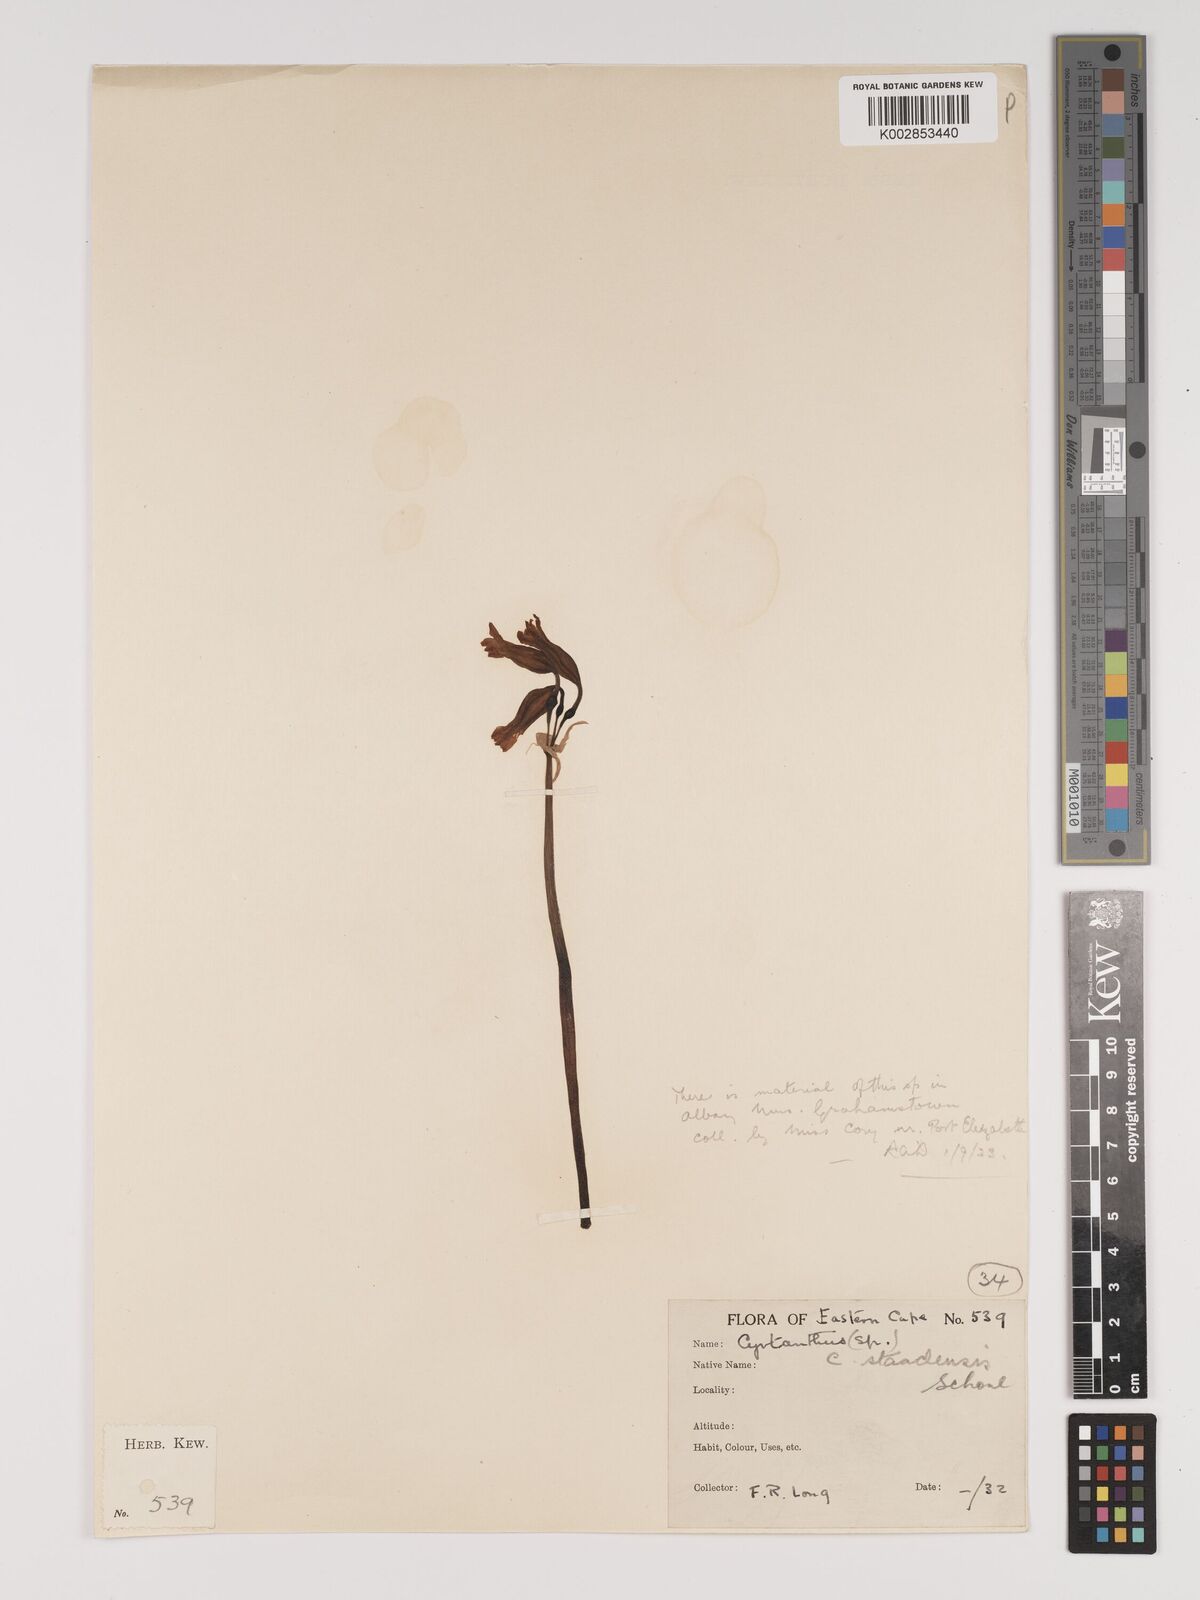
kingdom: Plantae
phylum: Tracheophyta
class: Liliopsida
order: Asparagales
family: Amaryllidaceae
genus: Cyrtanthus
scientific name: Cyrtanthus staadensis
